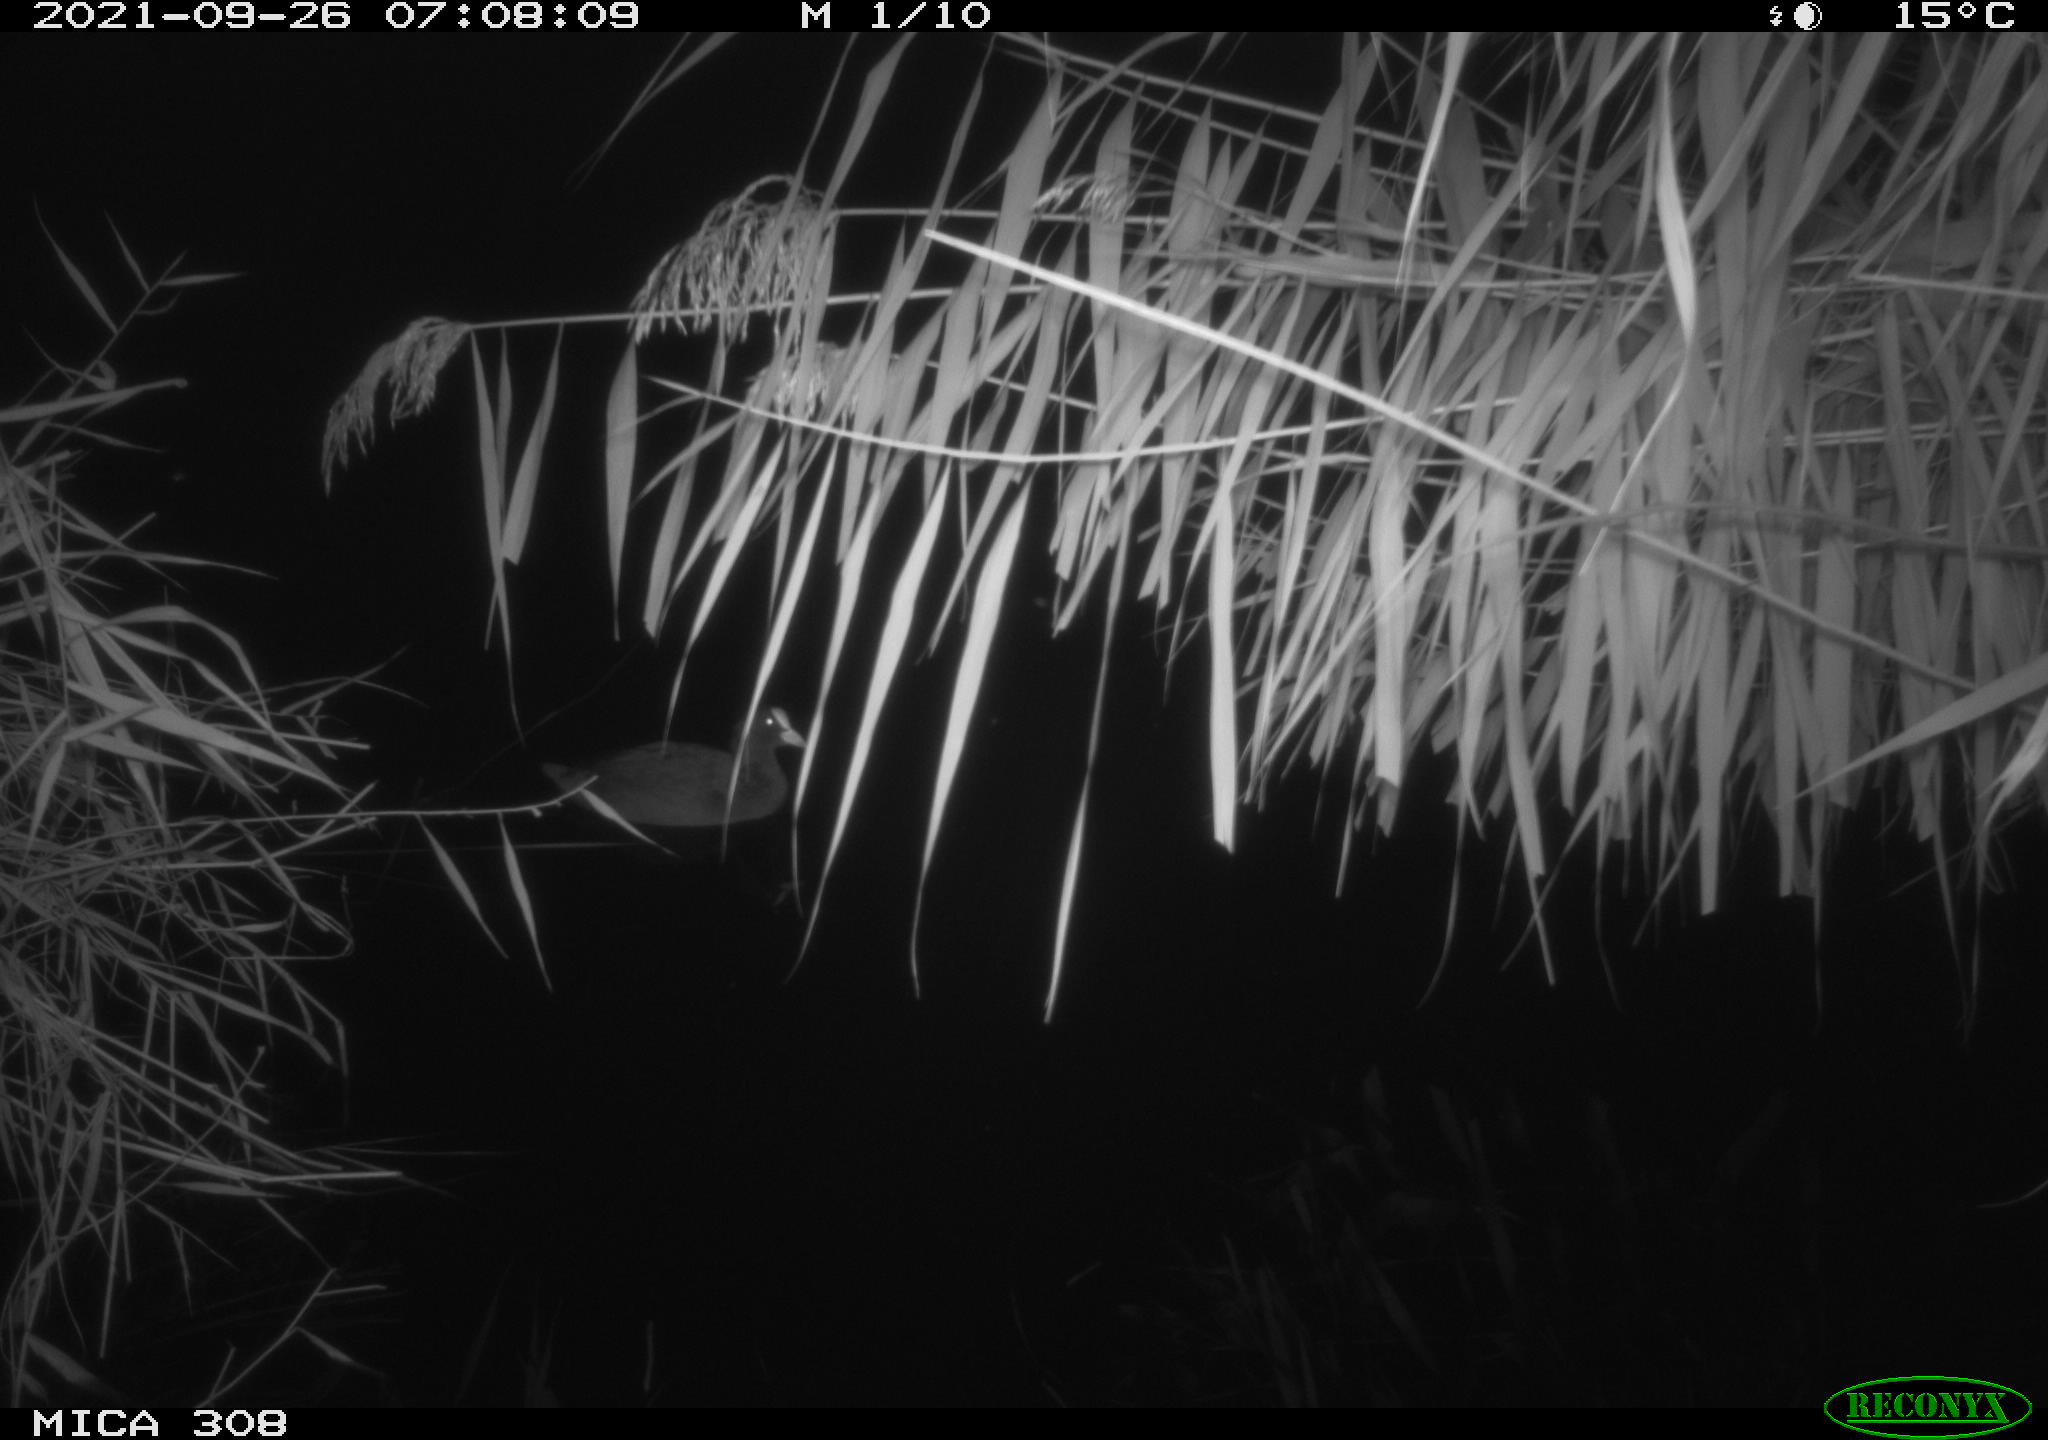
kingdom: Animalia
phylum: Chordata
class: Aves
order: Gruiformes
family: Rallidae
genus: Gallinula
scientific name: Gallinula chloropus
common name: Common moorhen
